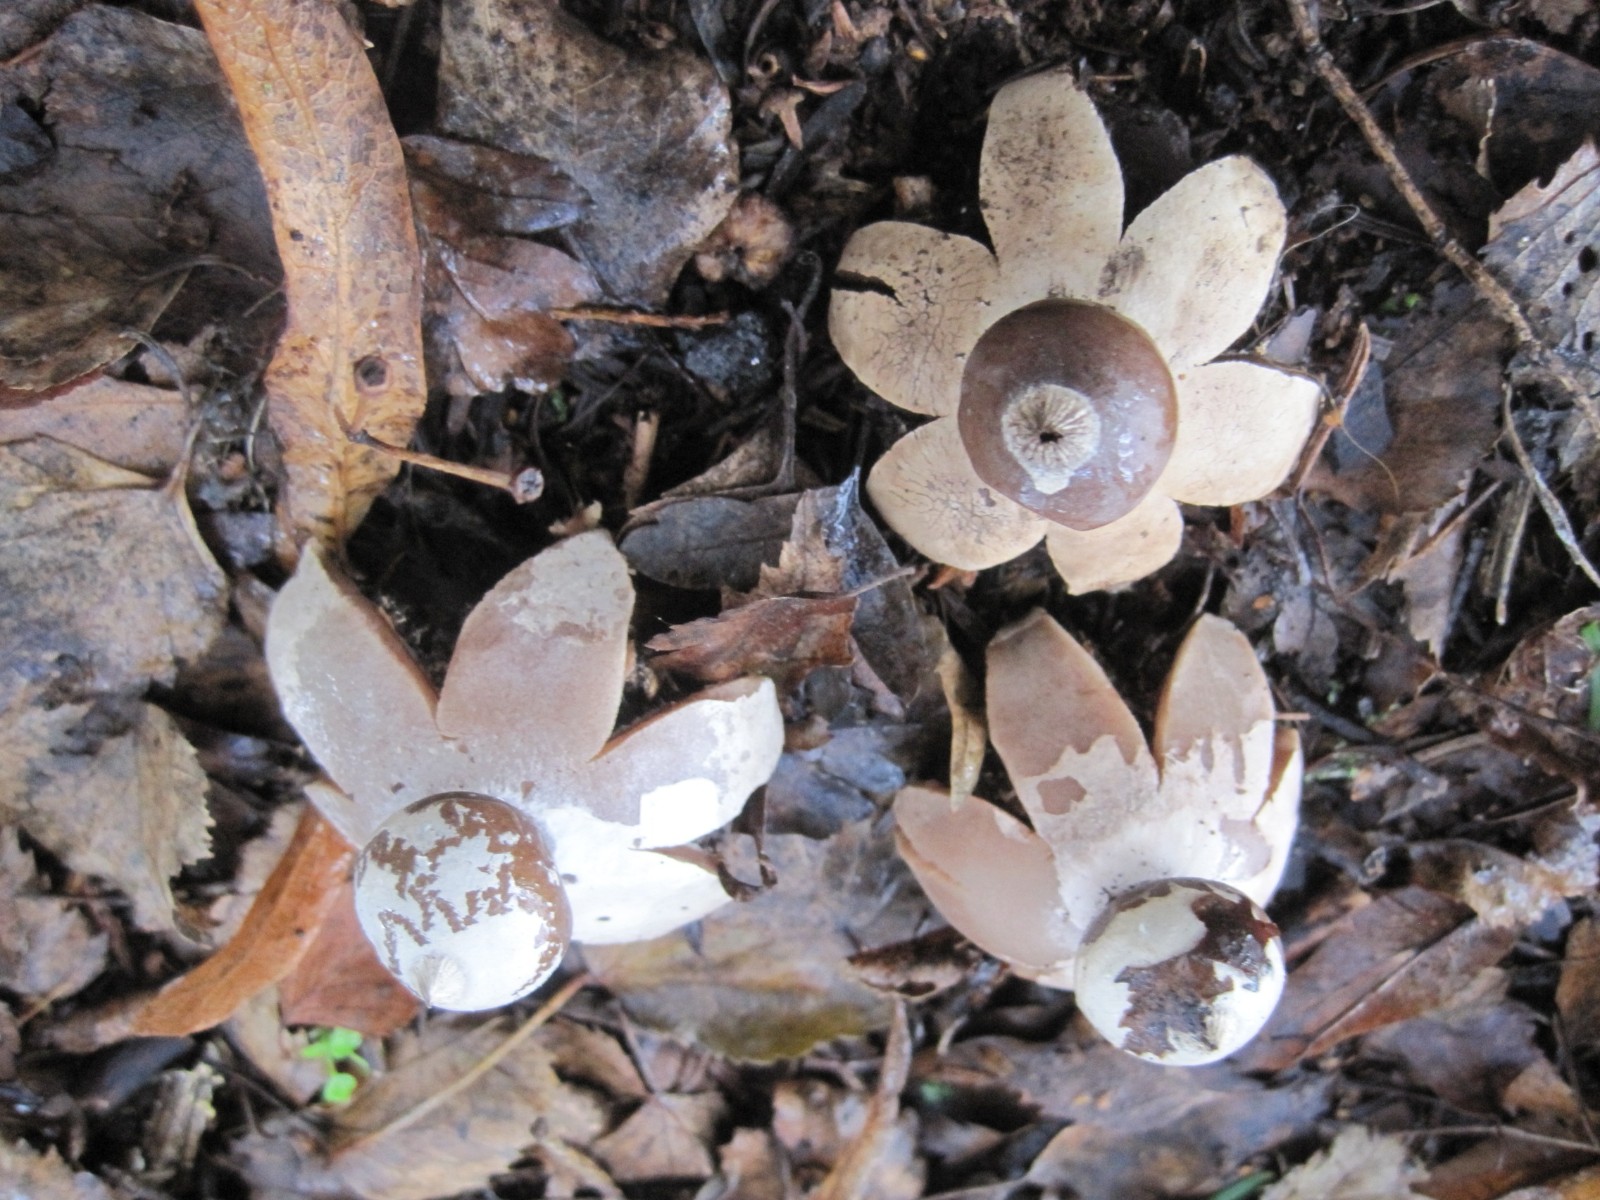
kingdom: Fungi
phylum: Basidiomycota
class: Agaricomycetes
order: Geastrales
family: Geastraceae
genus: Geastrum
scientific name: Geastrum michelianum
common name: kødet stjernebold
